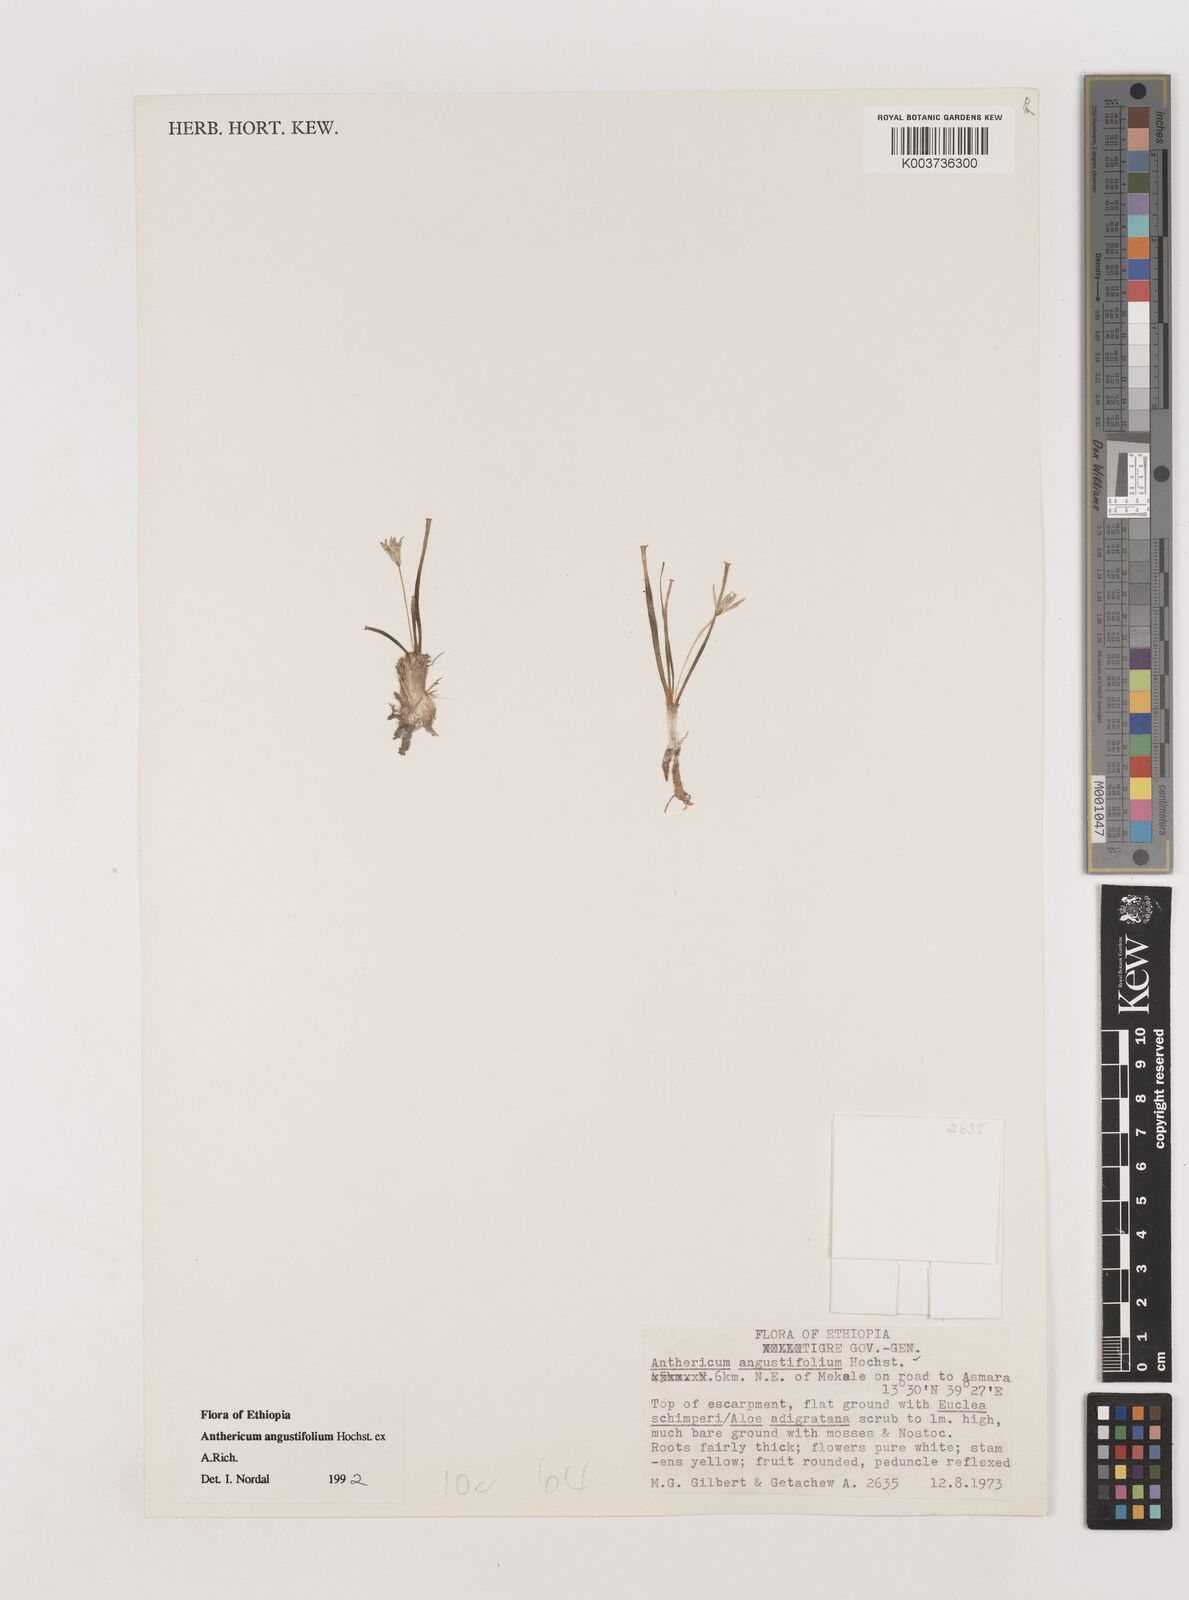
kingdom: Plantae
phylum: Tracheophyta
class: Liliopsida
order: Asparagales
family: Asparagaceae
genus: Anthericum
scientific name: Anthericum angustifolium
